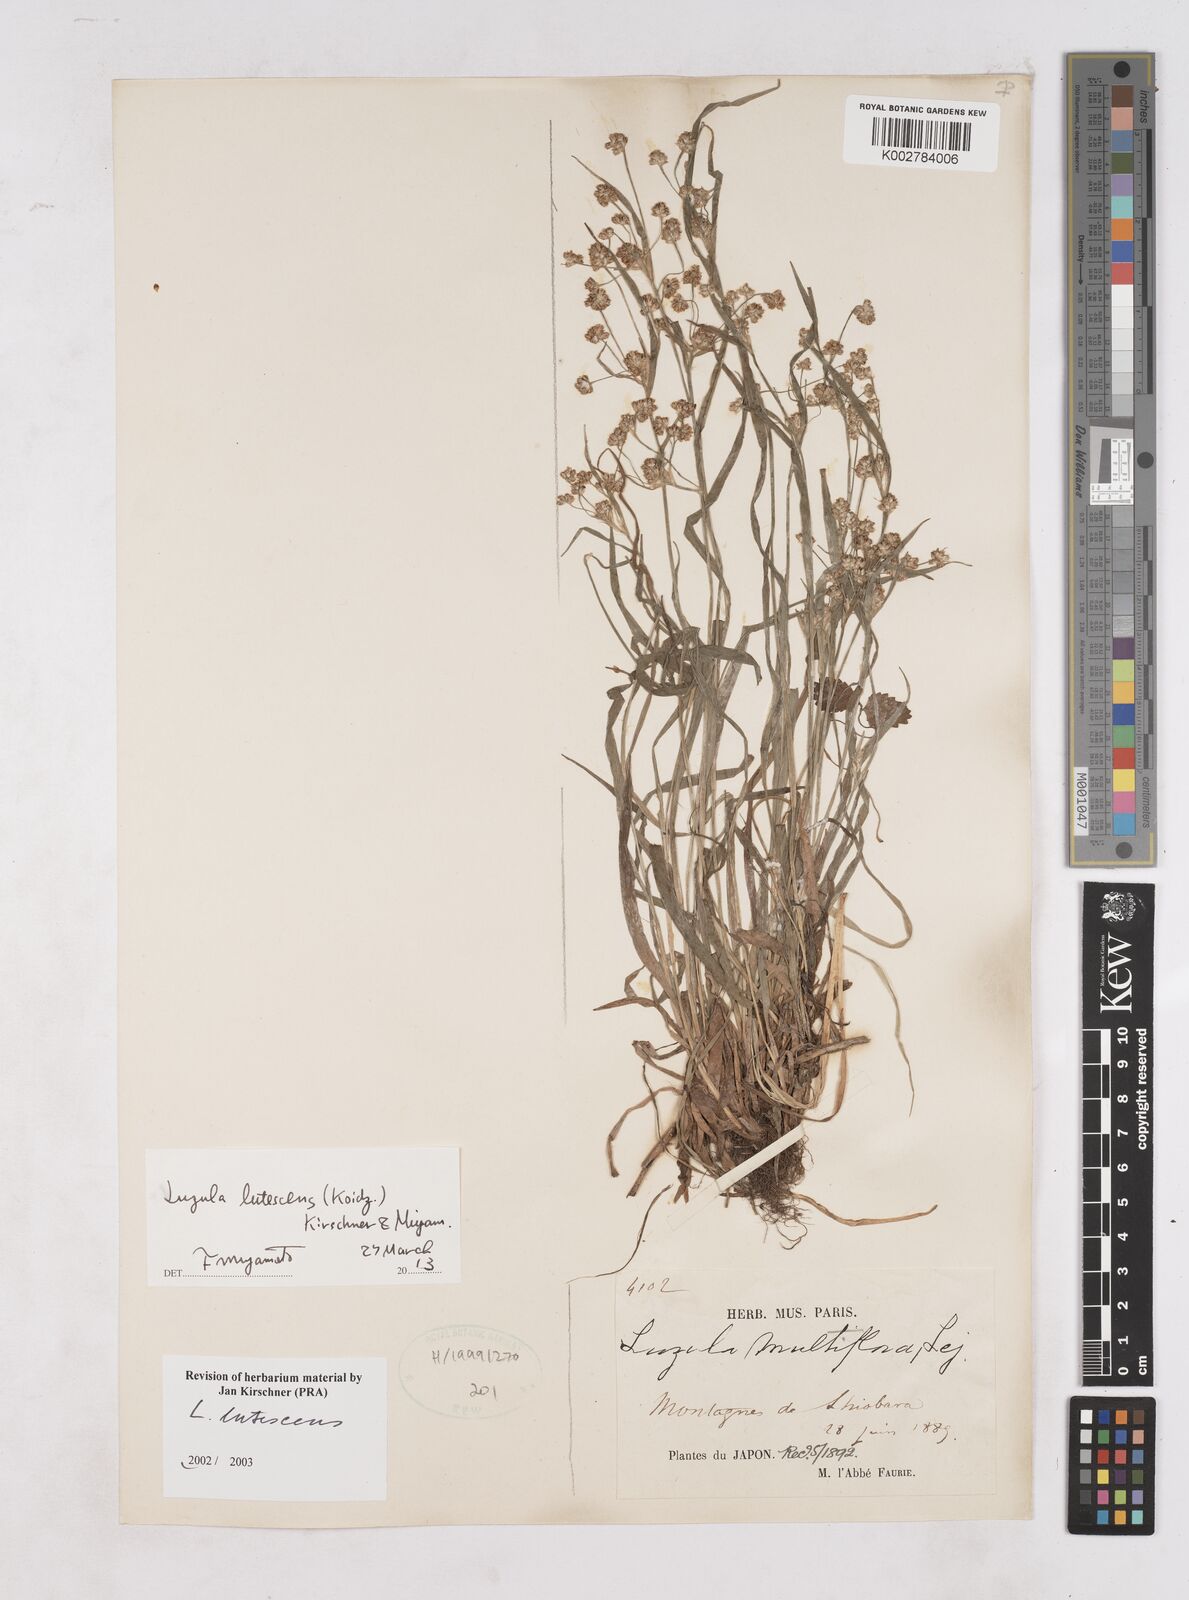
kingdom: Plantae
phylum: Tracheophyta
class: Liliopsida
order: Poales
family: Juncaceae
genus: Luzula
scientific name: Luzula lutescens
